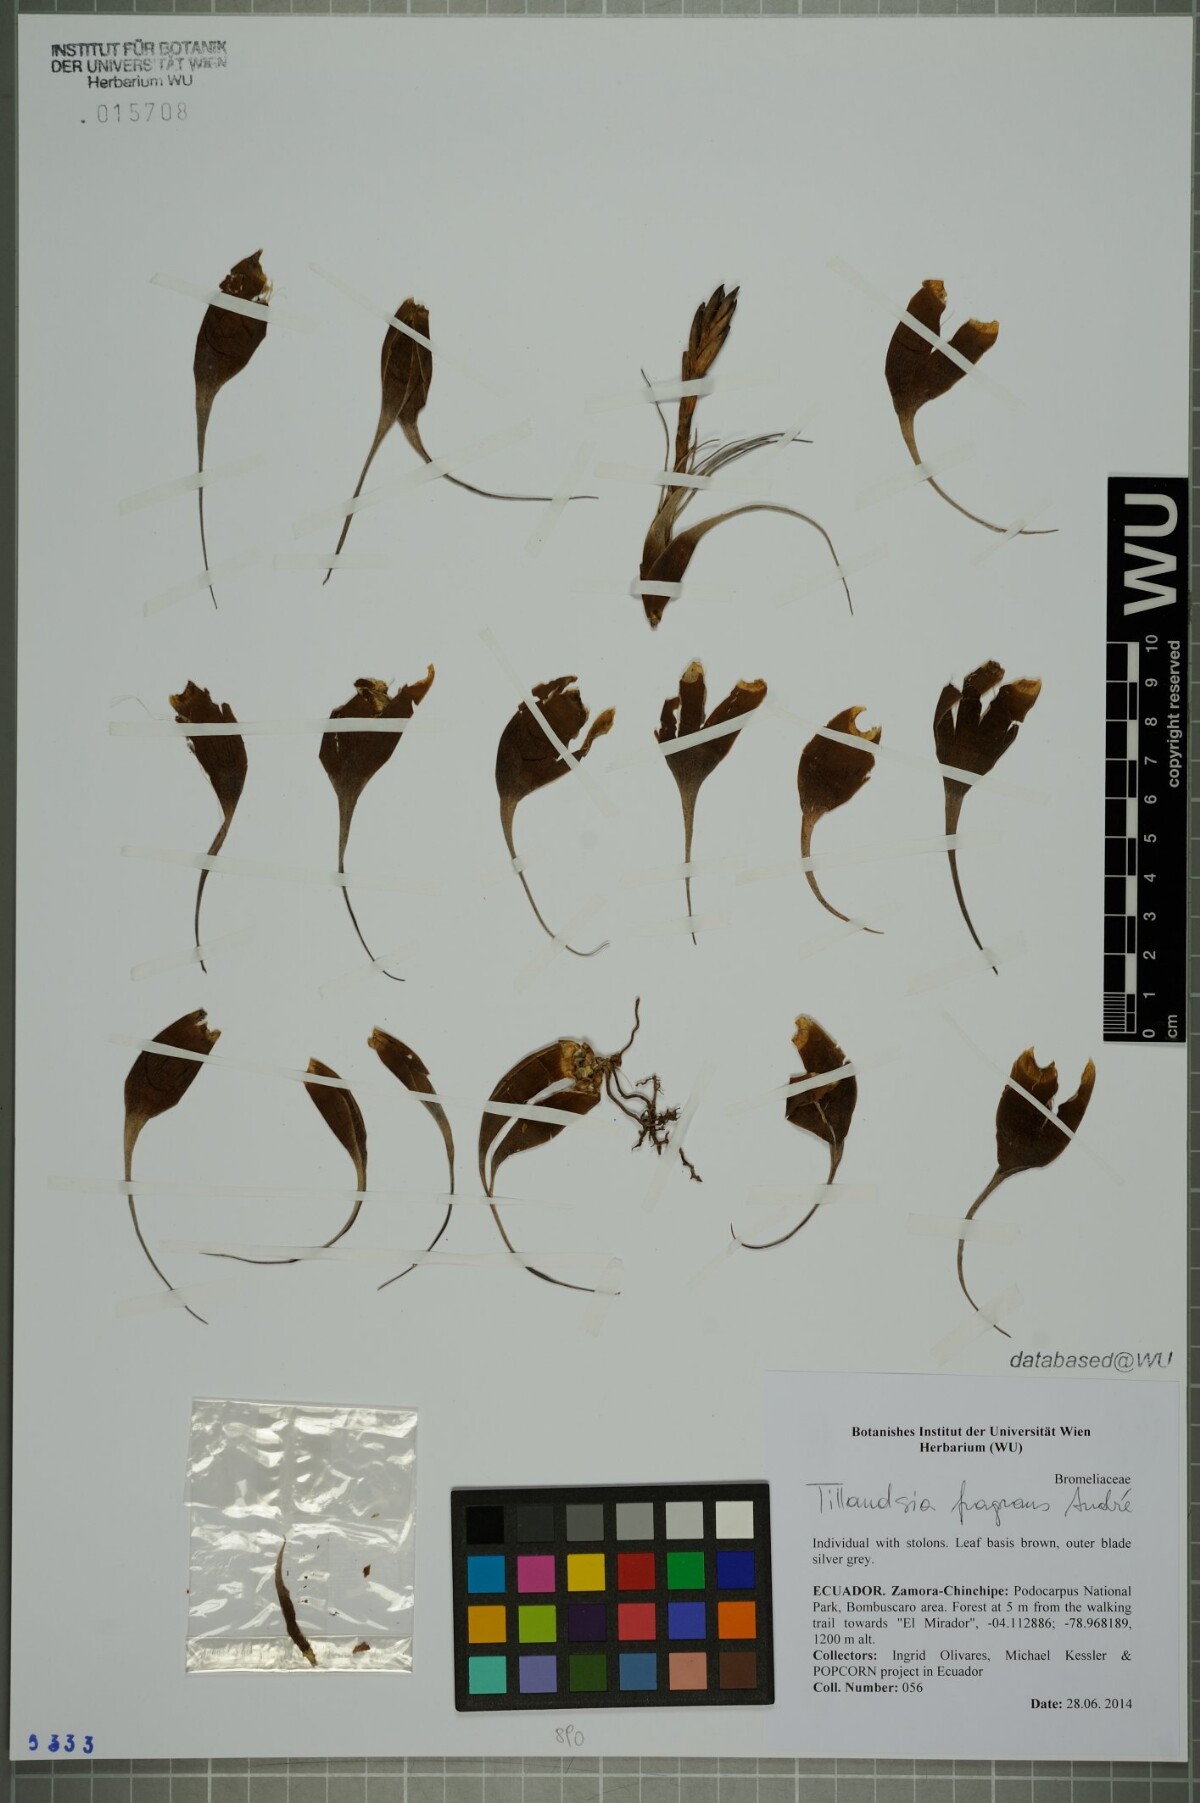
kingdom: Plantae
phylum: Tracheophyta
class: Liliopsida
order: Poales
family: Bromeliaceae
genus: Tillandsia
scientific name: Tillandsia fragrans
